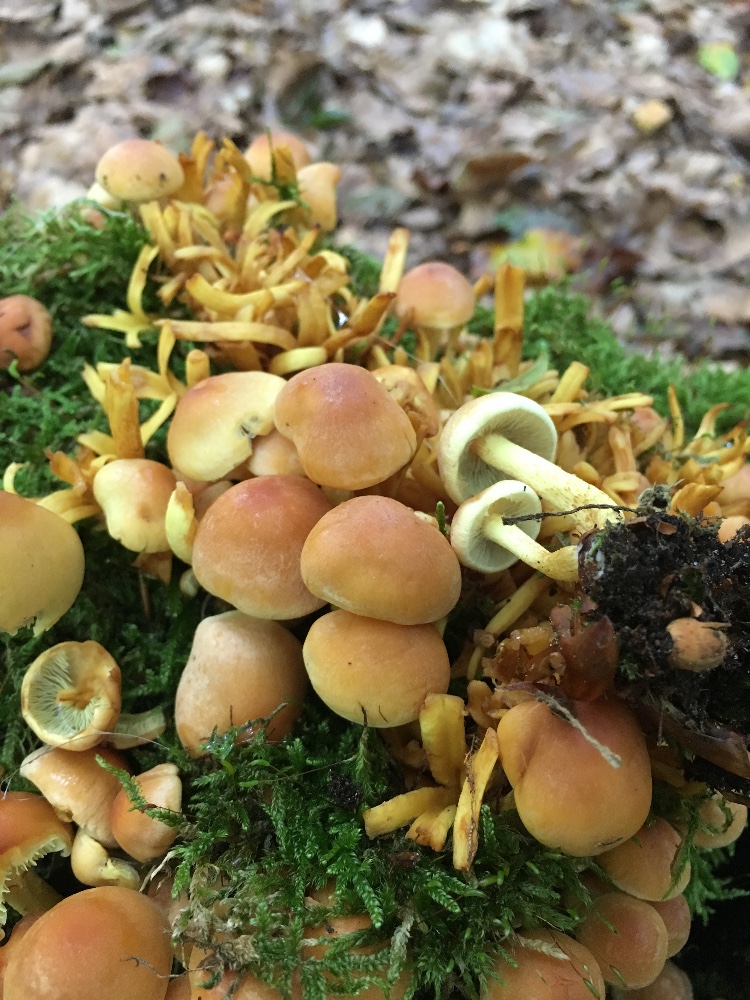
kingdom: Fungi
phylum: Basidiomycota
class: Agaricomycetes
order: Agaricales
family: Strophariaceae
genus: Hypholoma
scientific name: Hypholoma fasciculare
